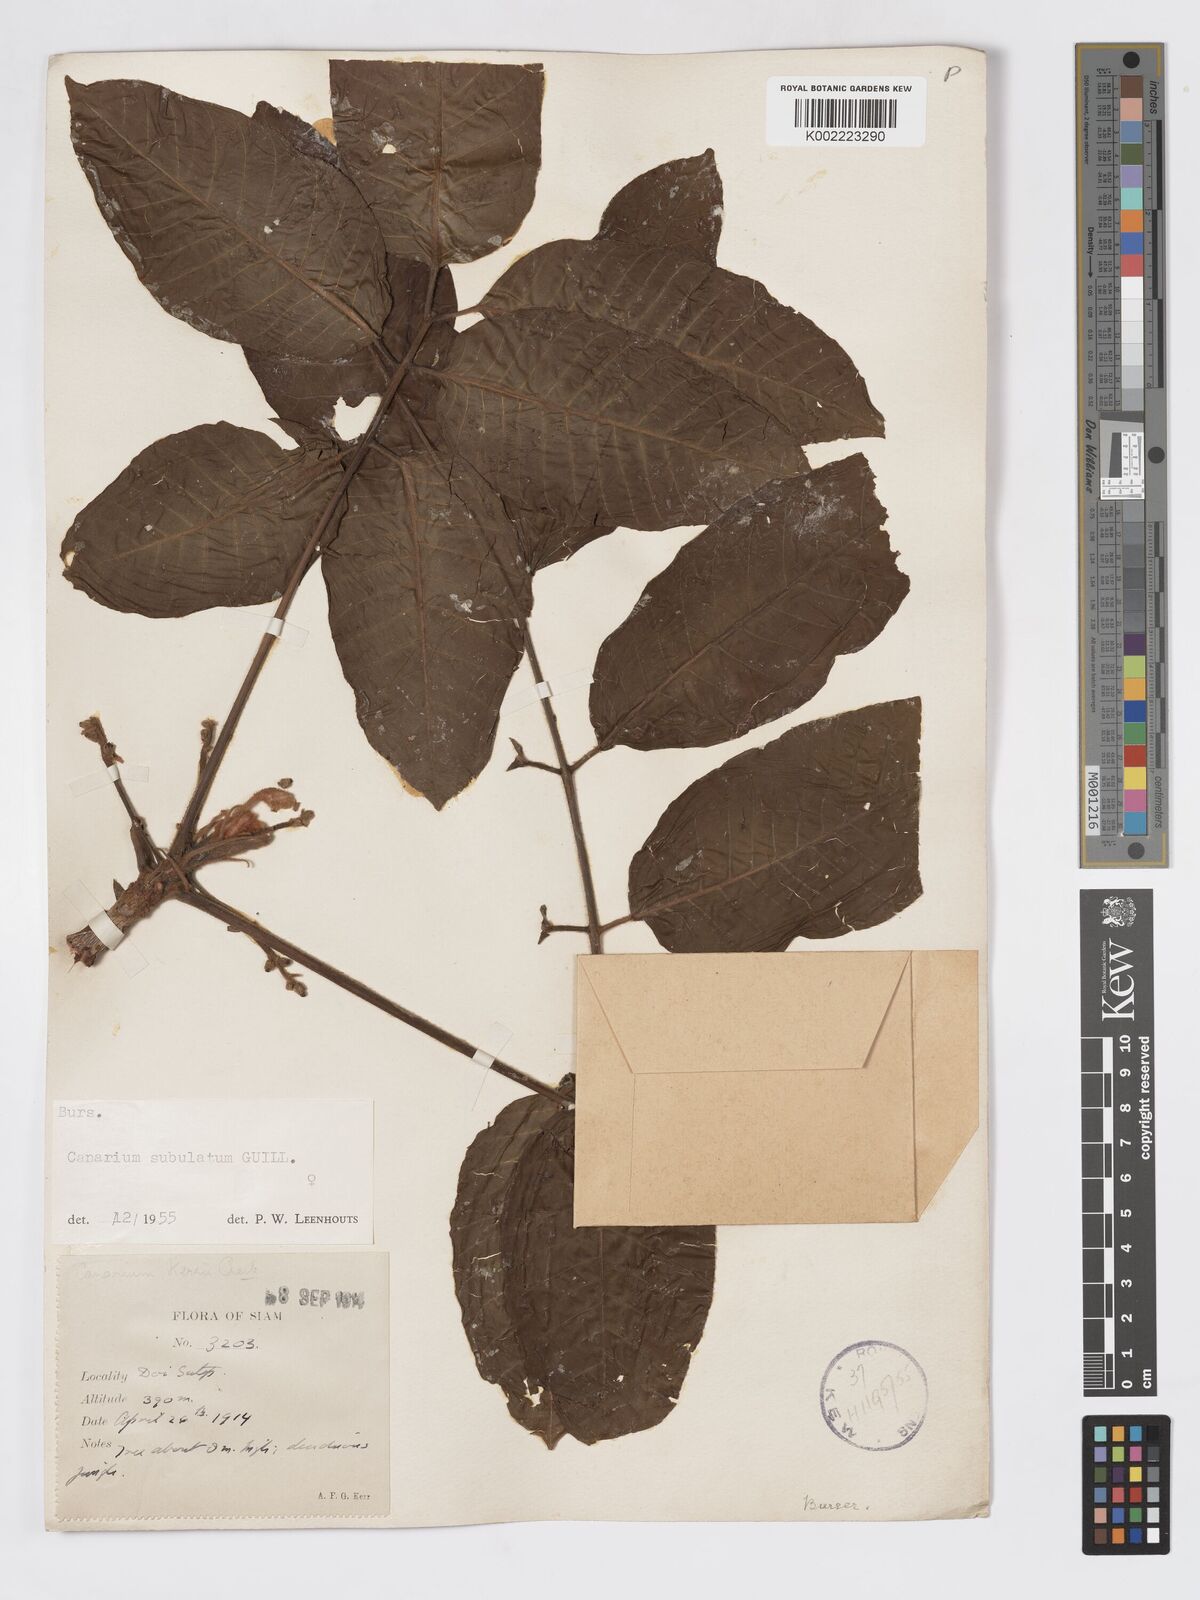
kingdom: Plantae
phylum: Tracheophyta
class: Magnoliopsida
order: Sapindales
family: Burseraceae
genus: Canarium
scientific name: Canarium subulatum
